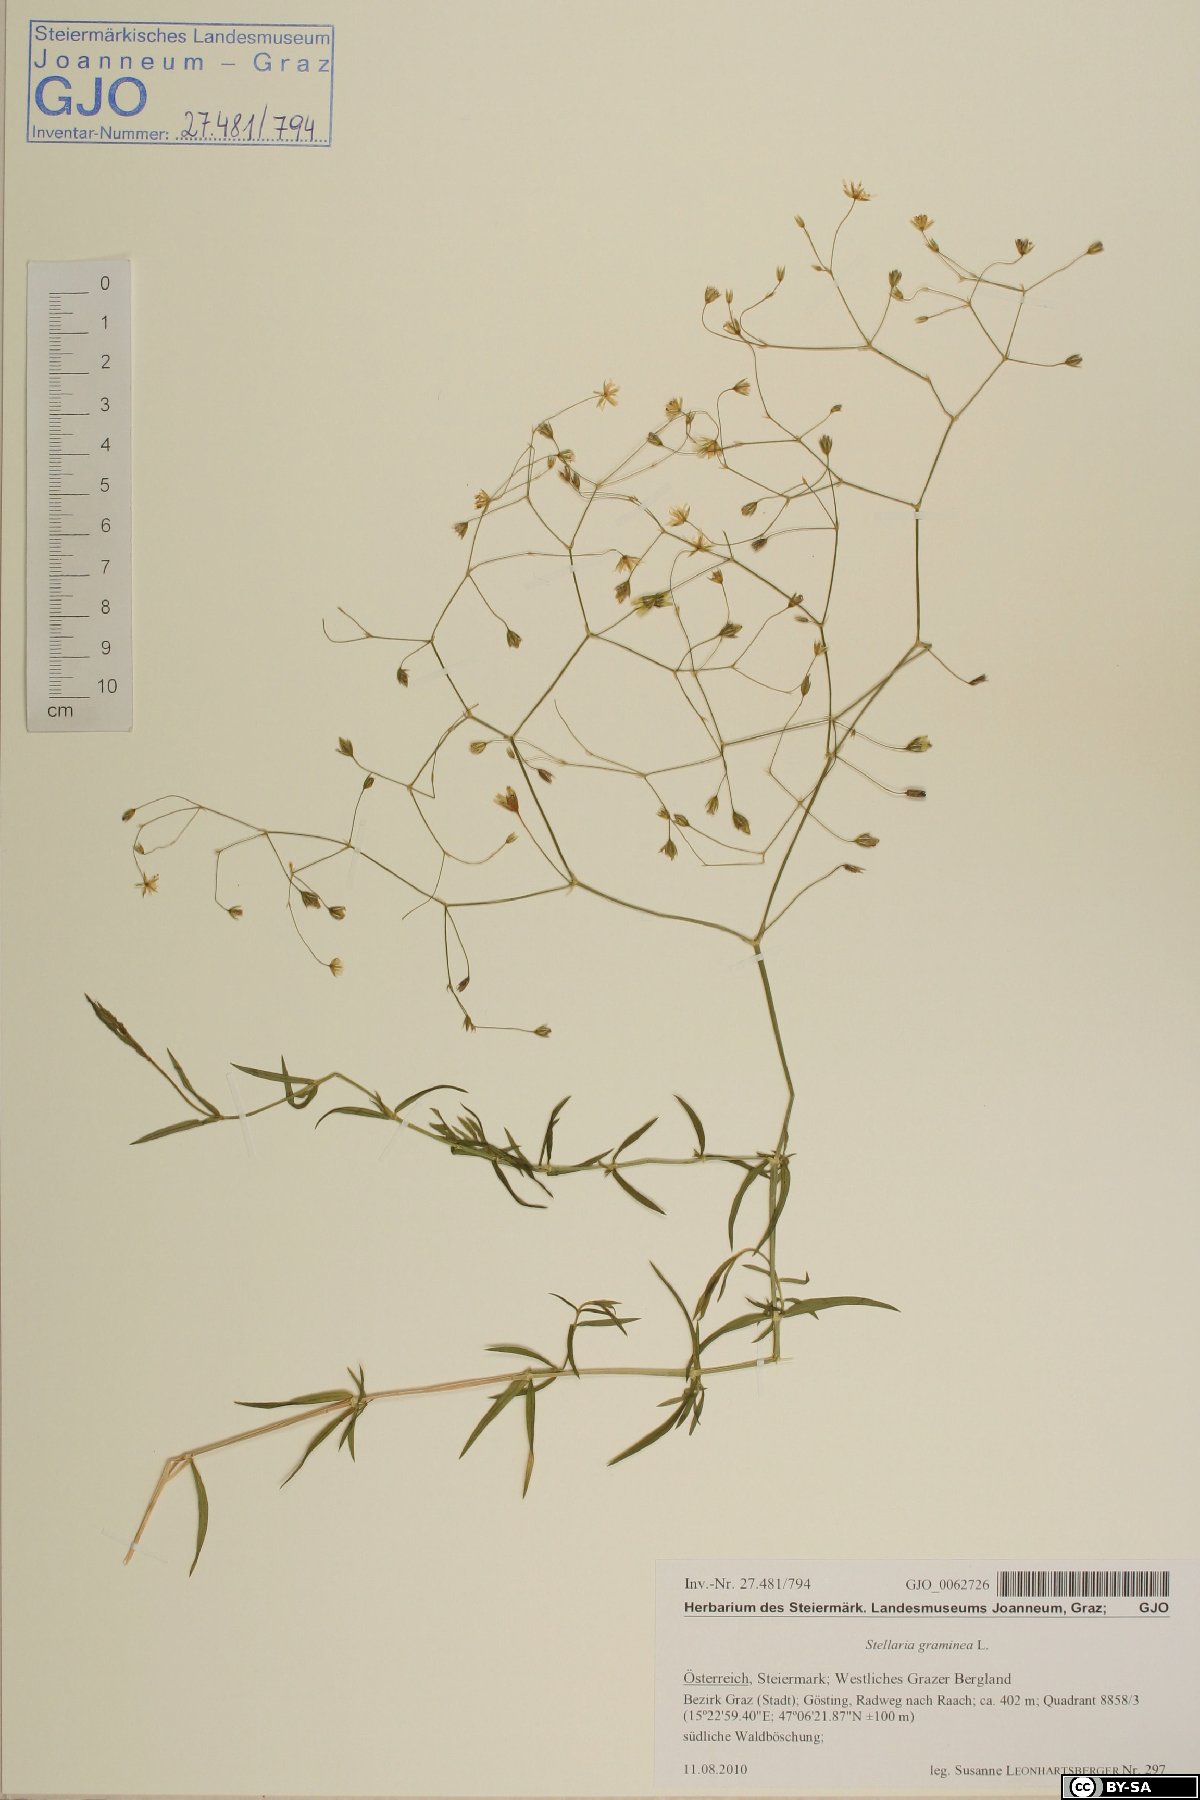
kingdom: Plantae
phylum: Tracheophyta
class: Magnoliopsida
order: Caryophyllales
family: Caryophyllaceae
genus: Stellaria
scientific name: Stellaria graminea
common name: Grass-like starwort
